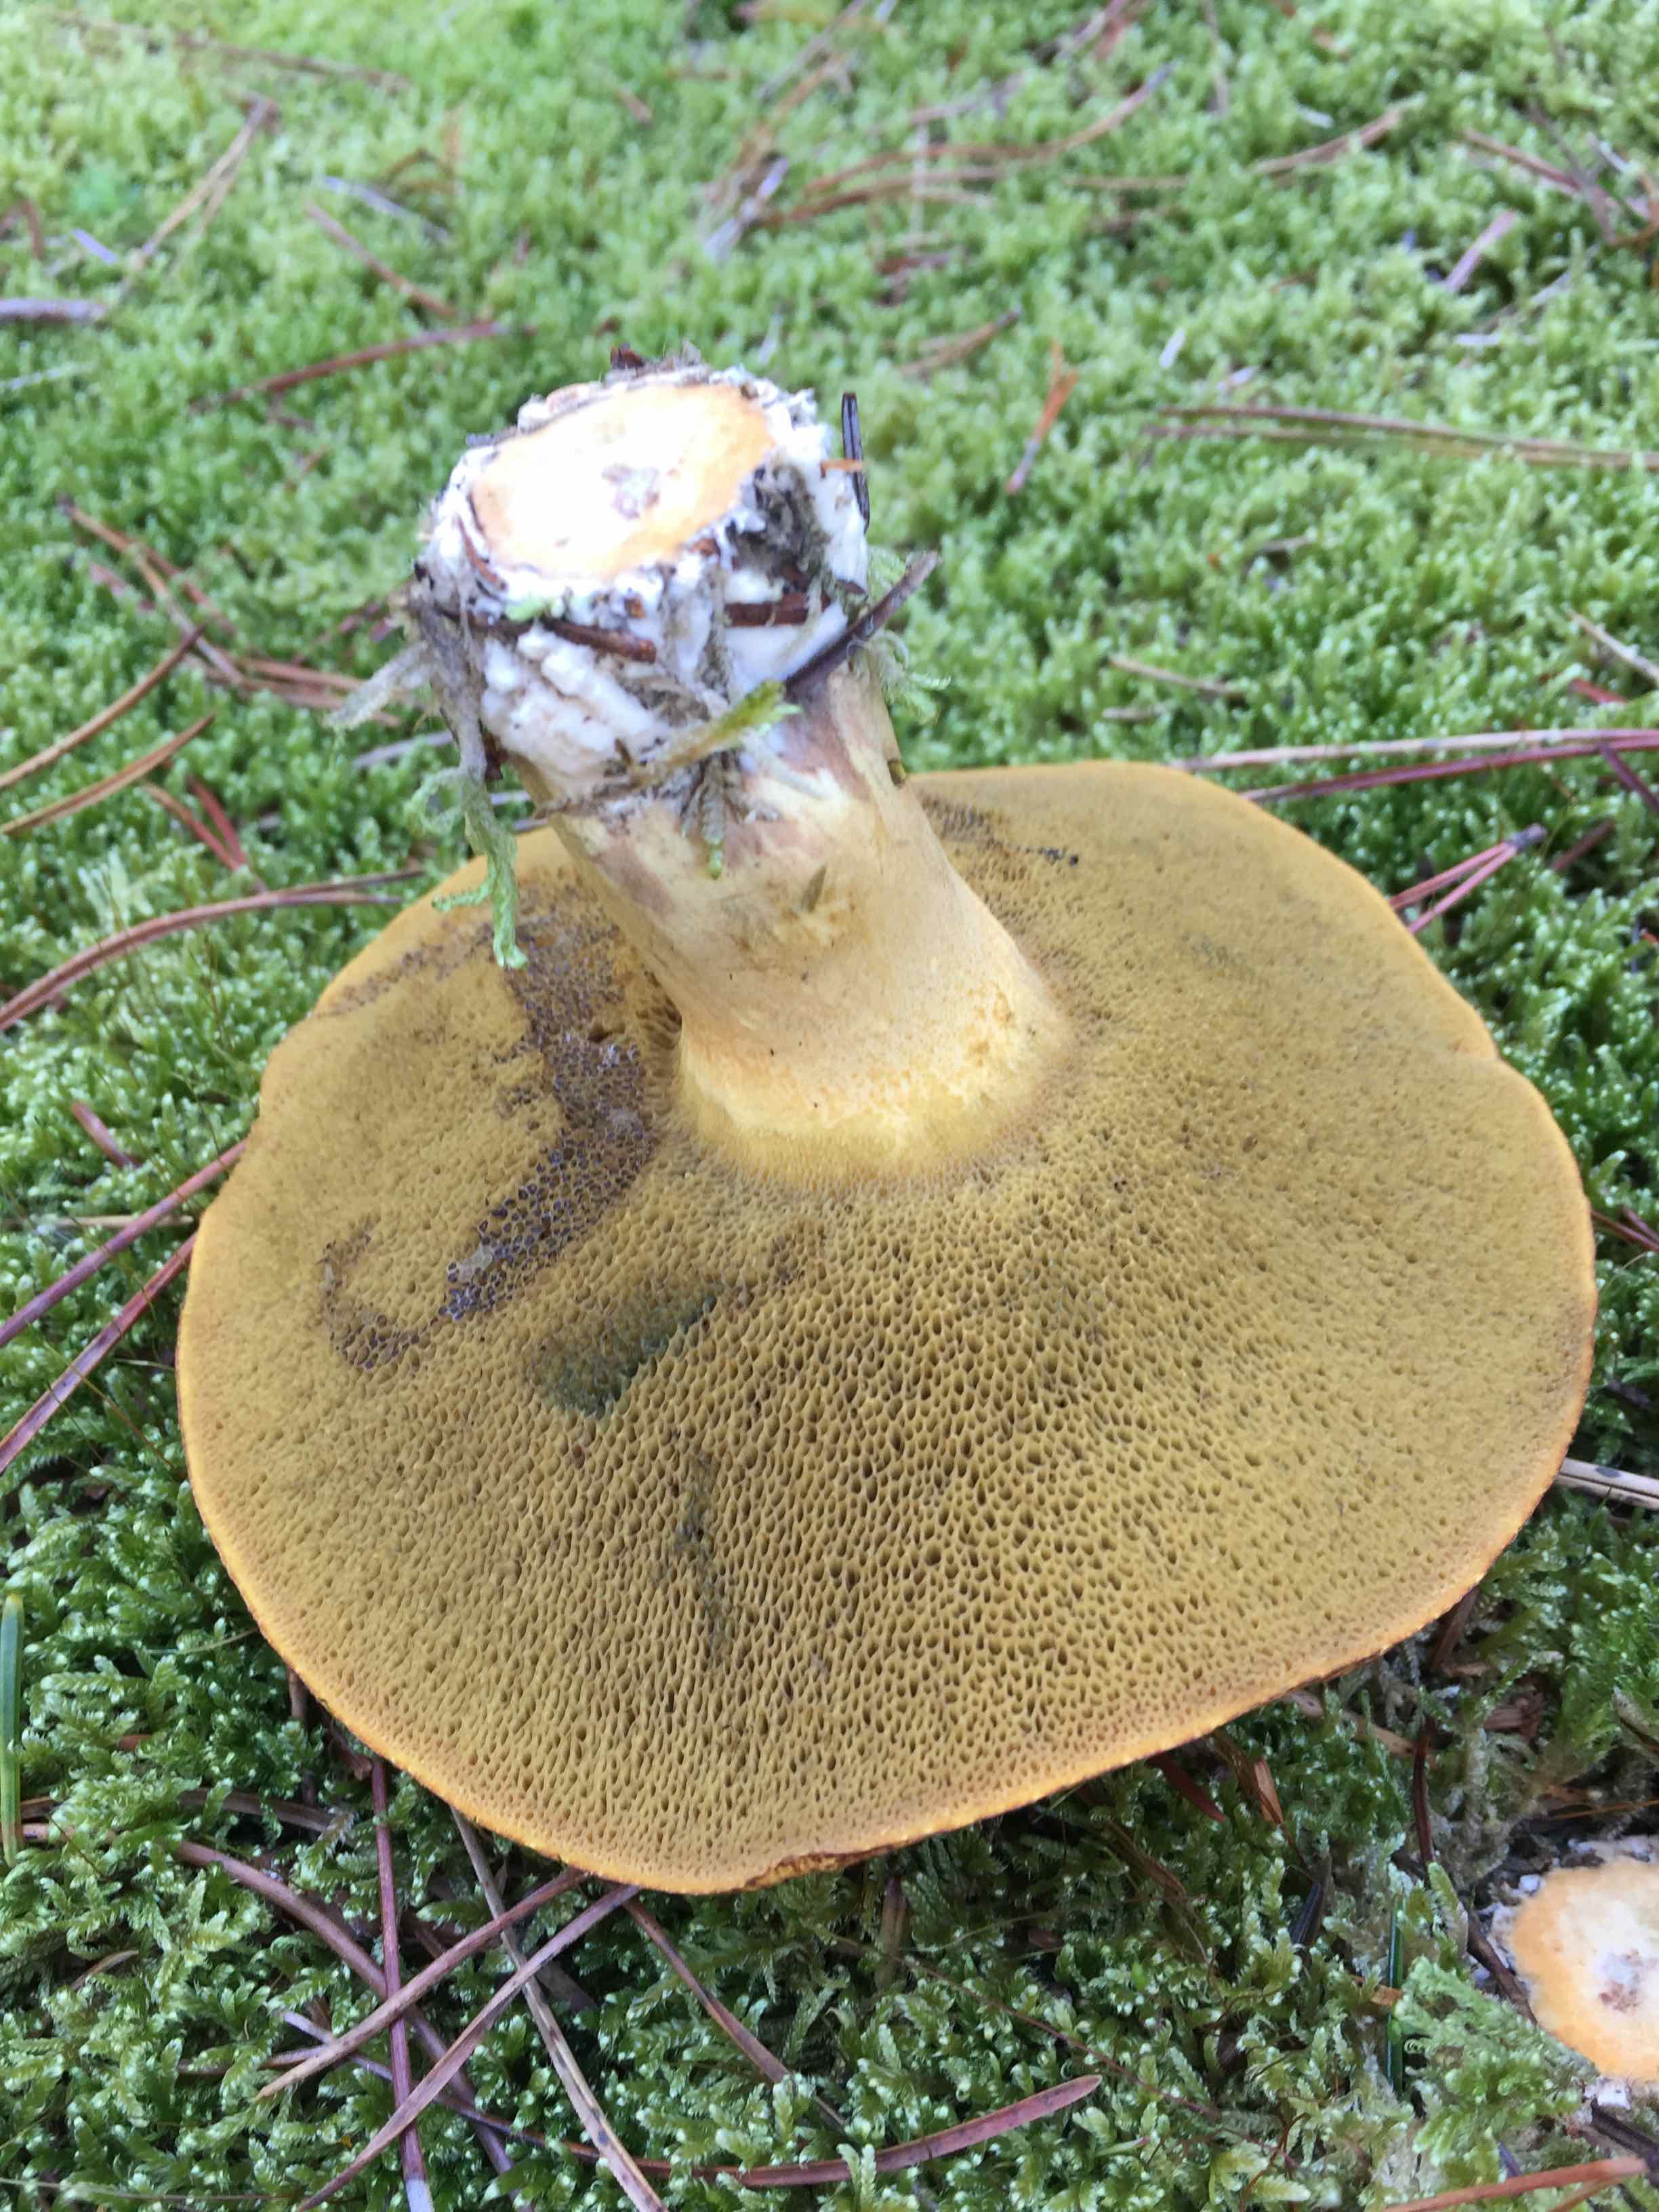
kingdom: Fungi
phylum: Basidiomycota
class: Agaricomycetes
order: Boletales
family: Suillaceae
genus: Suillus
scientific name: Suillus variegatus
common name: broget slimrørhat
